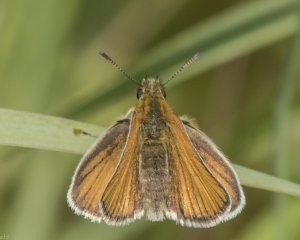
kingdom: Animalia
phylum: Arthropoda
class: Insecta
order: Lepidoptera
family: Hesperiidae
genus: Thymelicus
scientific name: Thymelicus lineola
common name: European Skipper
